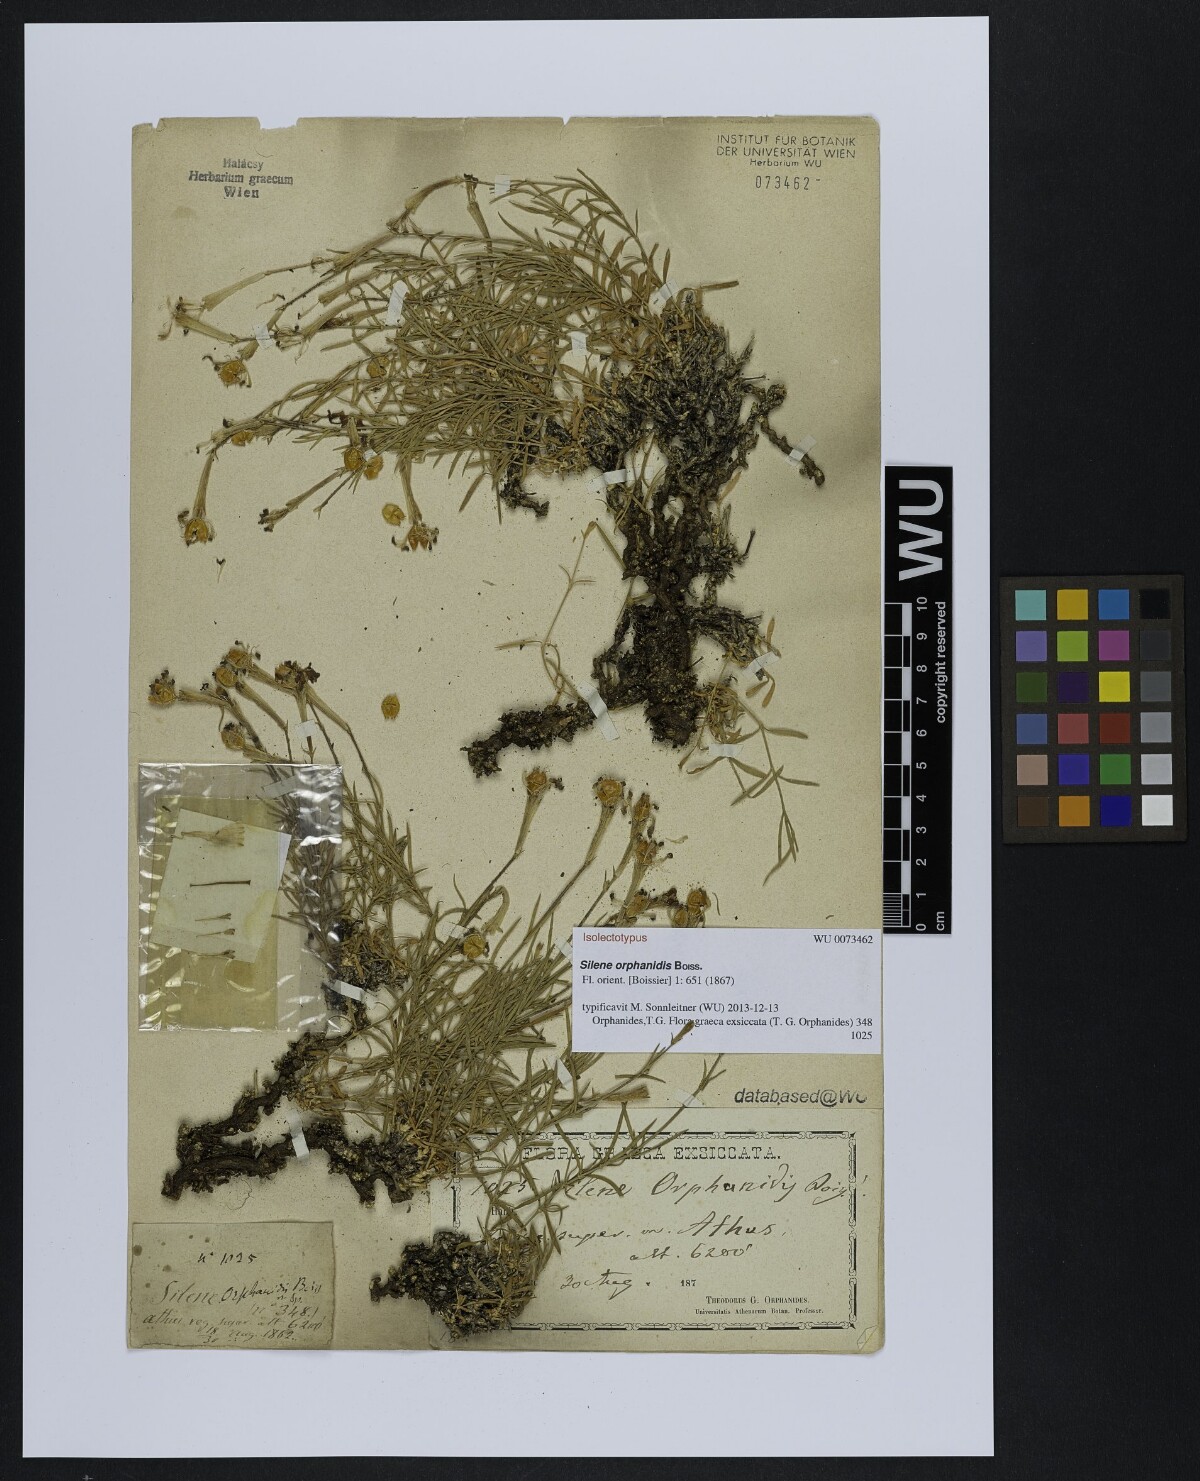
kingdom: Plantae
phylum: Tracheophyta
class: Magnoliopsida
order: Caryophyllales
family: Caryophyllaceae
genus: Silene
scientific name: Silene orphanidis
